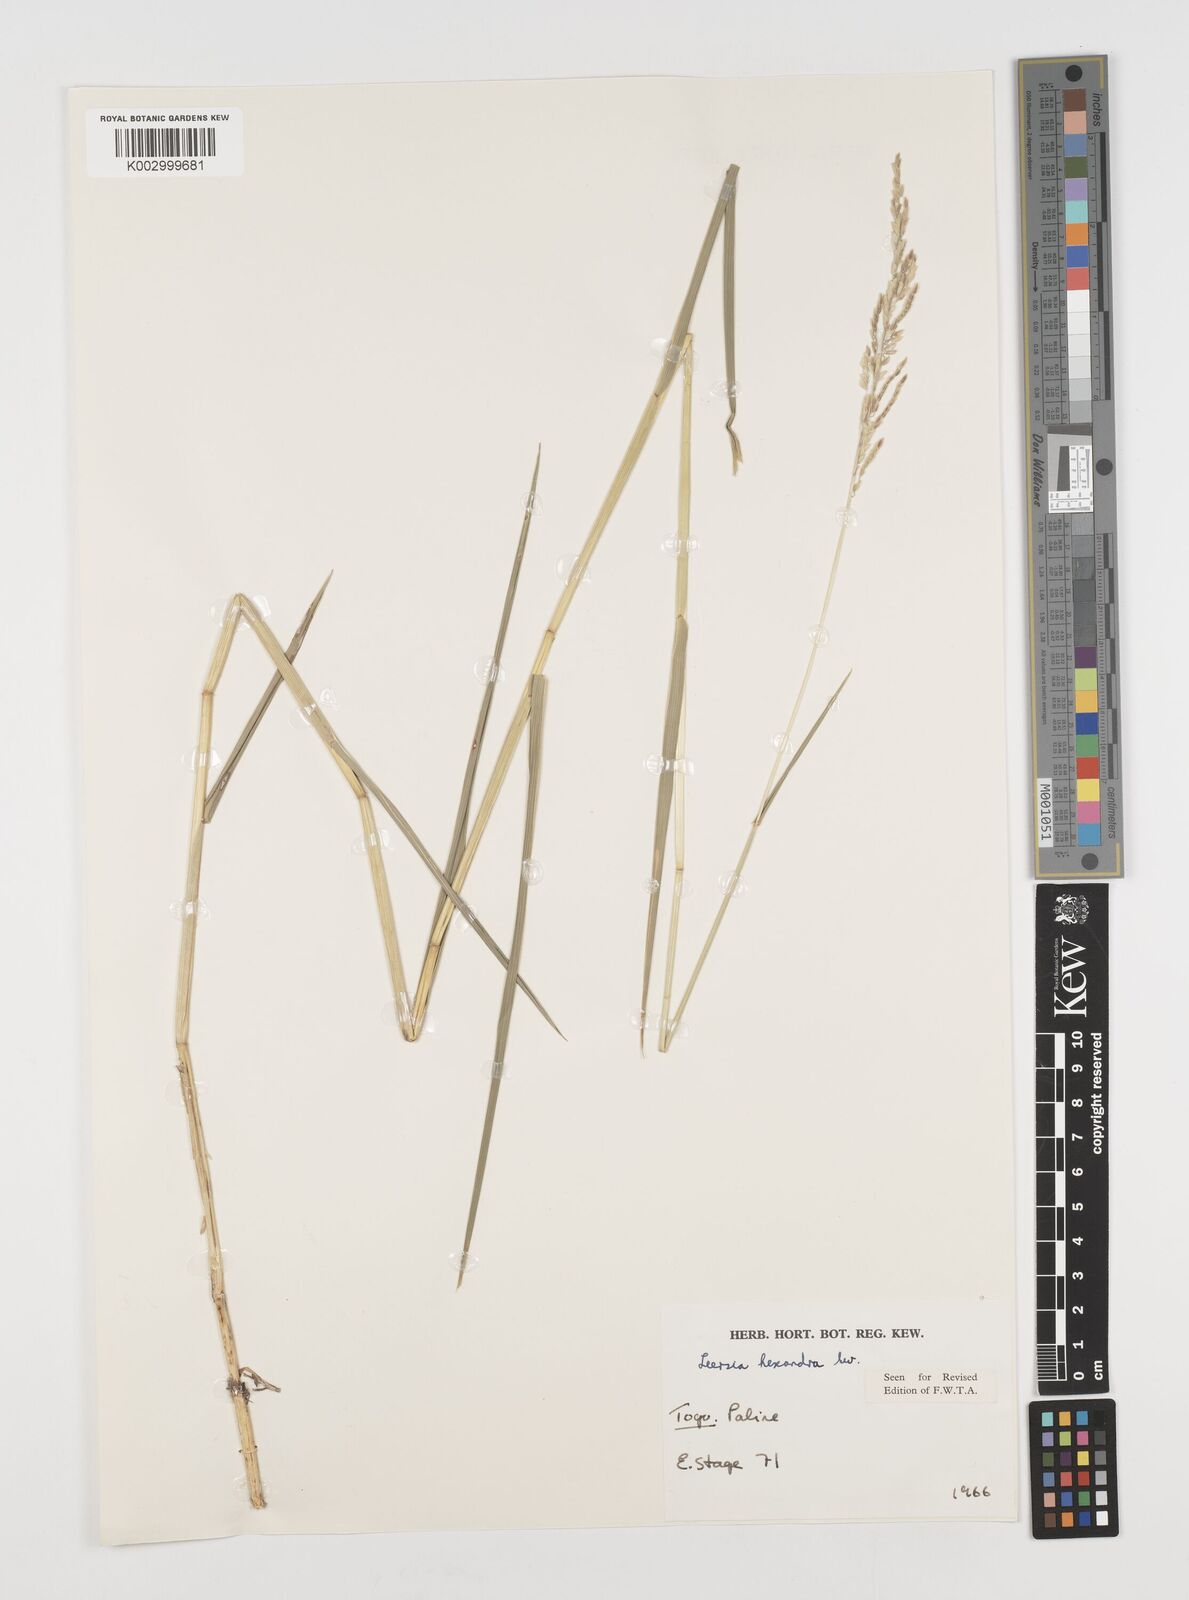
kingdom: Plantae
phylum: Tracheophyta
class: Liliopsida
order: Poales
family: Poaceae
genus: Leersia
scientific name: Leersia hexandra
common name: Southern cut grass
